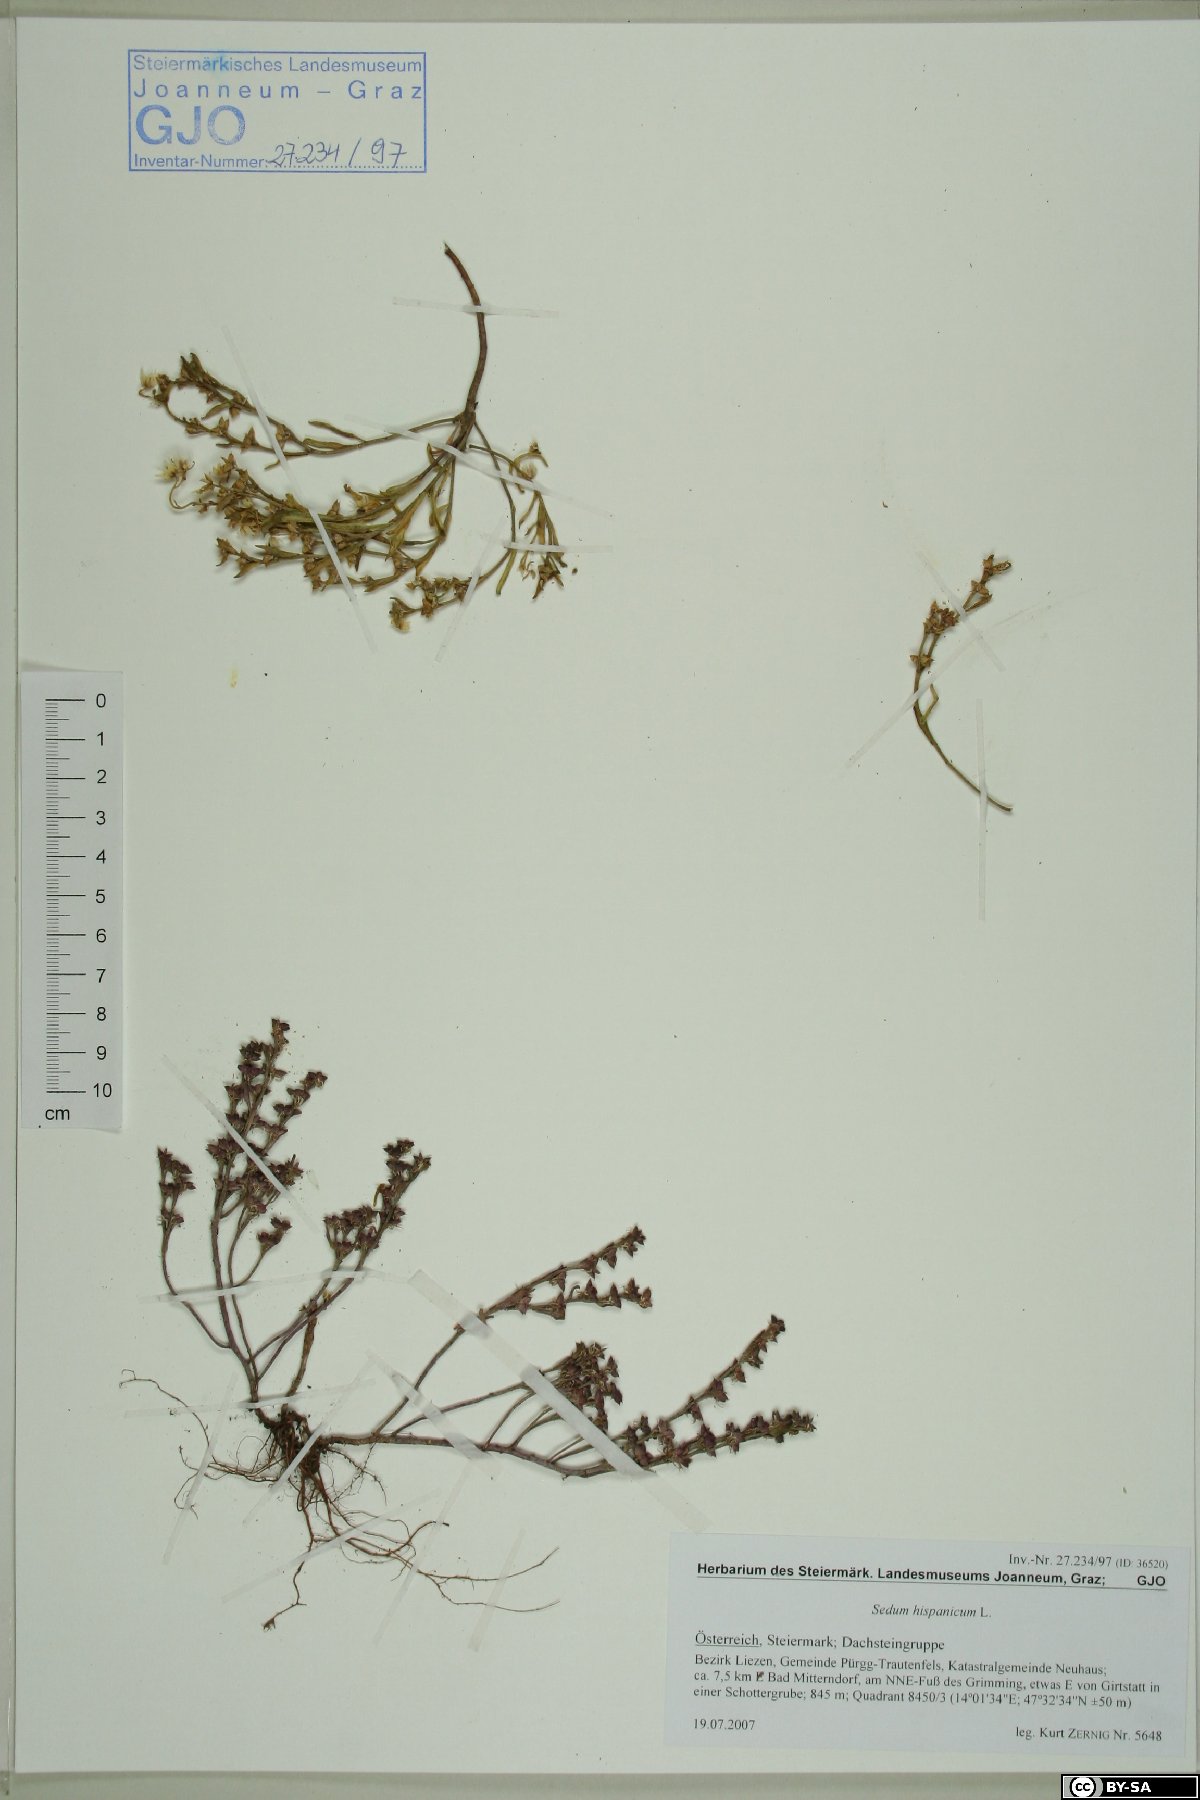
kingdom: Plantae
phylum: Tracheophyta
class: Magnoliopsida
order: Saxifragales
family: Crassulaceae
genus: Sedum
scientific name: Sedum hispanicum
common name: Spanish stonecrop
